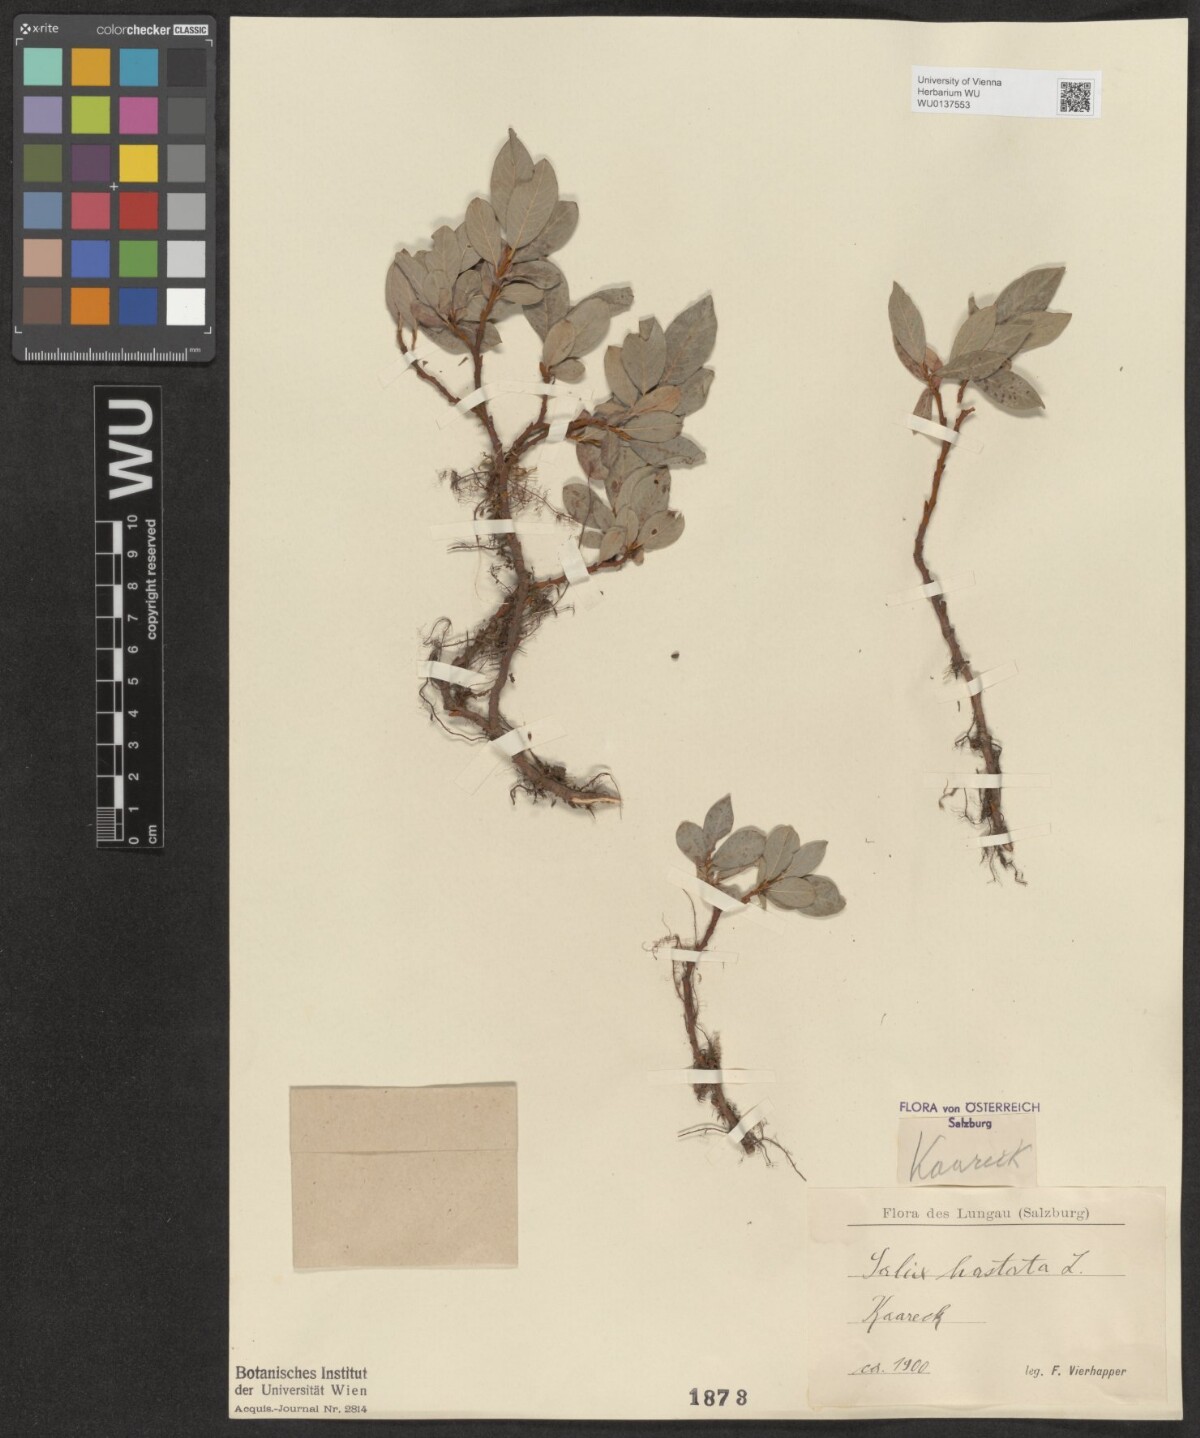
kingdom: Plantae
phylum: Tracheophyta
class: Magnoliopsida
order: Malpighiales
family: Salicaceae
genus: Salix
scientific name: Salix hastata
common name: Halberd willow
